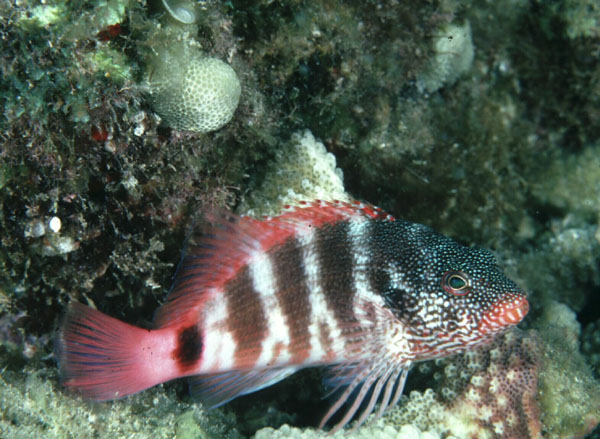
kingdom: Animalia
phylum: Chordata
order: Perciformes
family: Cirrhitidae
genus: Cirrhitops
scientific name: Cirrhitops fasciatus
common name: Redbarred hawkfish
